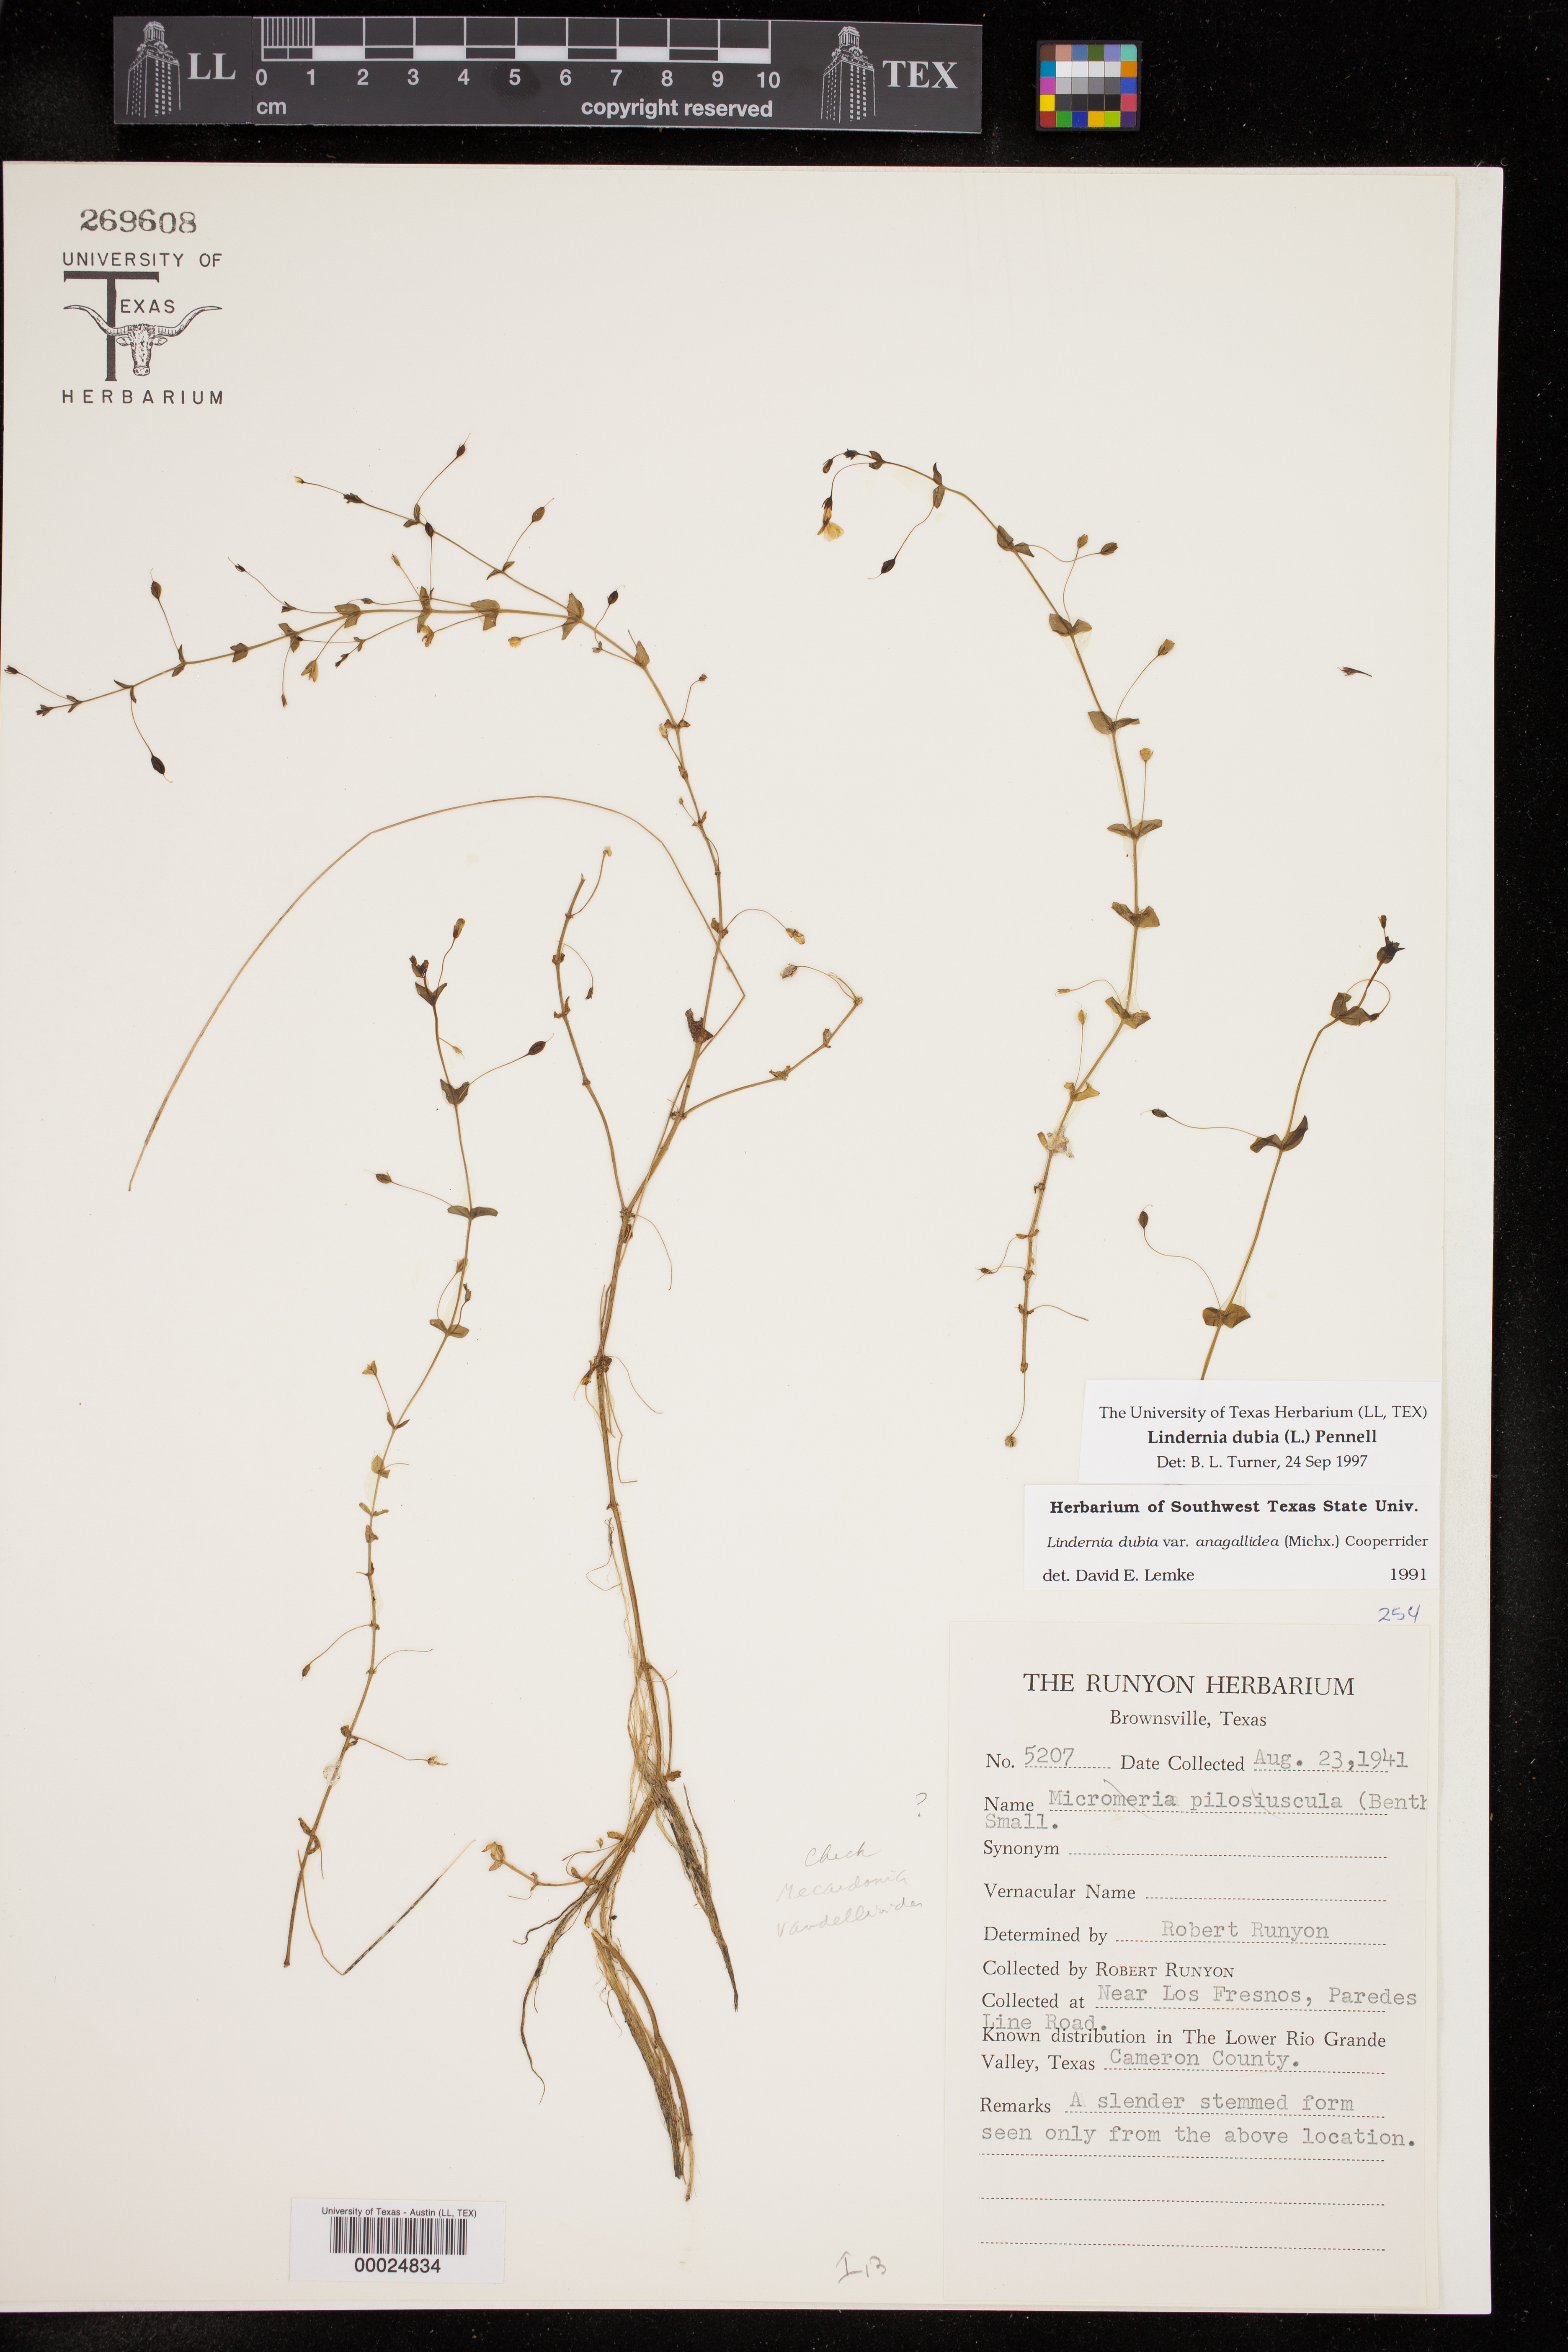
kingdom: Plantae
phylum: Tracheophyta
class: Magnoliopsida
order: Lamiales
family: Linderniaceae
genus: Lindernia
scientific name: Lindernia dubia
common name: Annual false pimpernel
